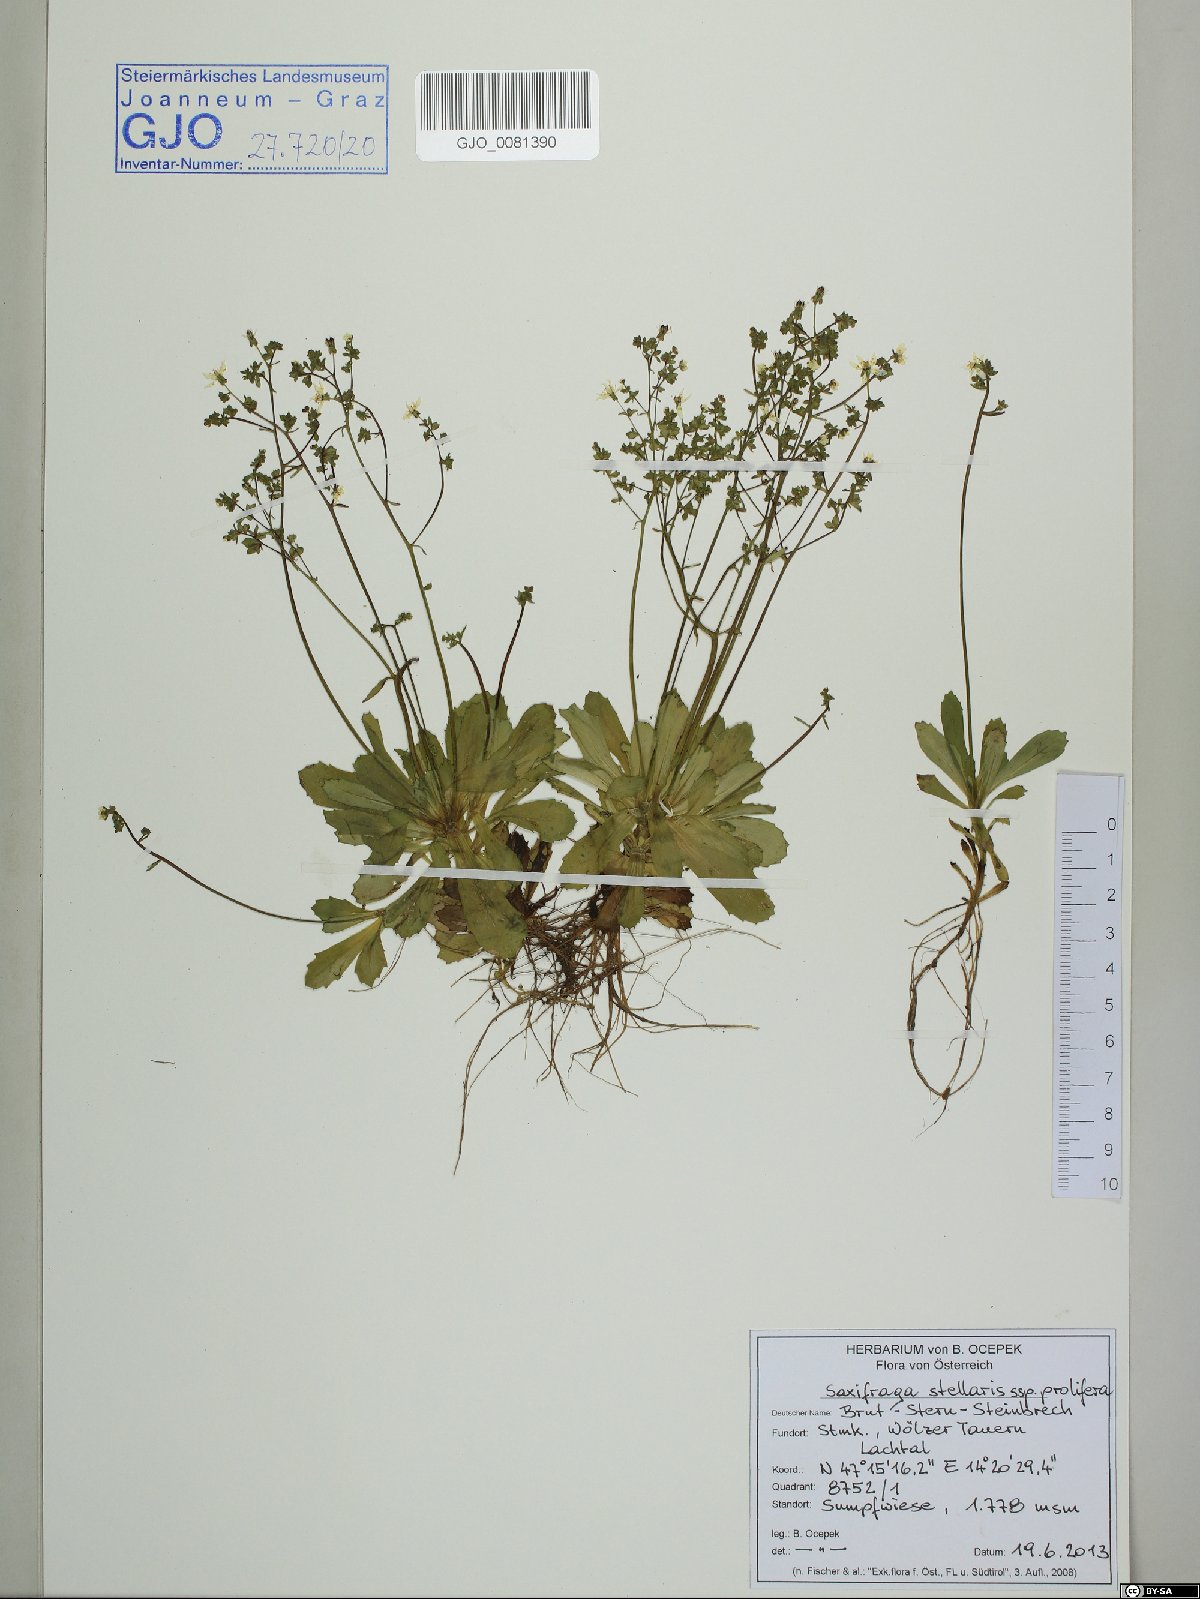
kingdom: Plantae
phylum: Tracheophyta
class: Magnoliopsida
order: Saxifragales
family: Saxifragaceae
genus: Micranthes
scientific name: Micranthes stellaris
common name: Starry saxifrage
